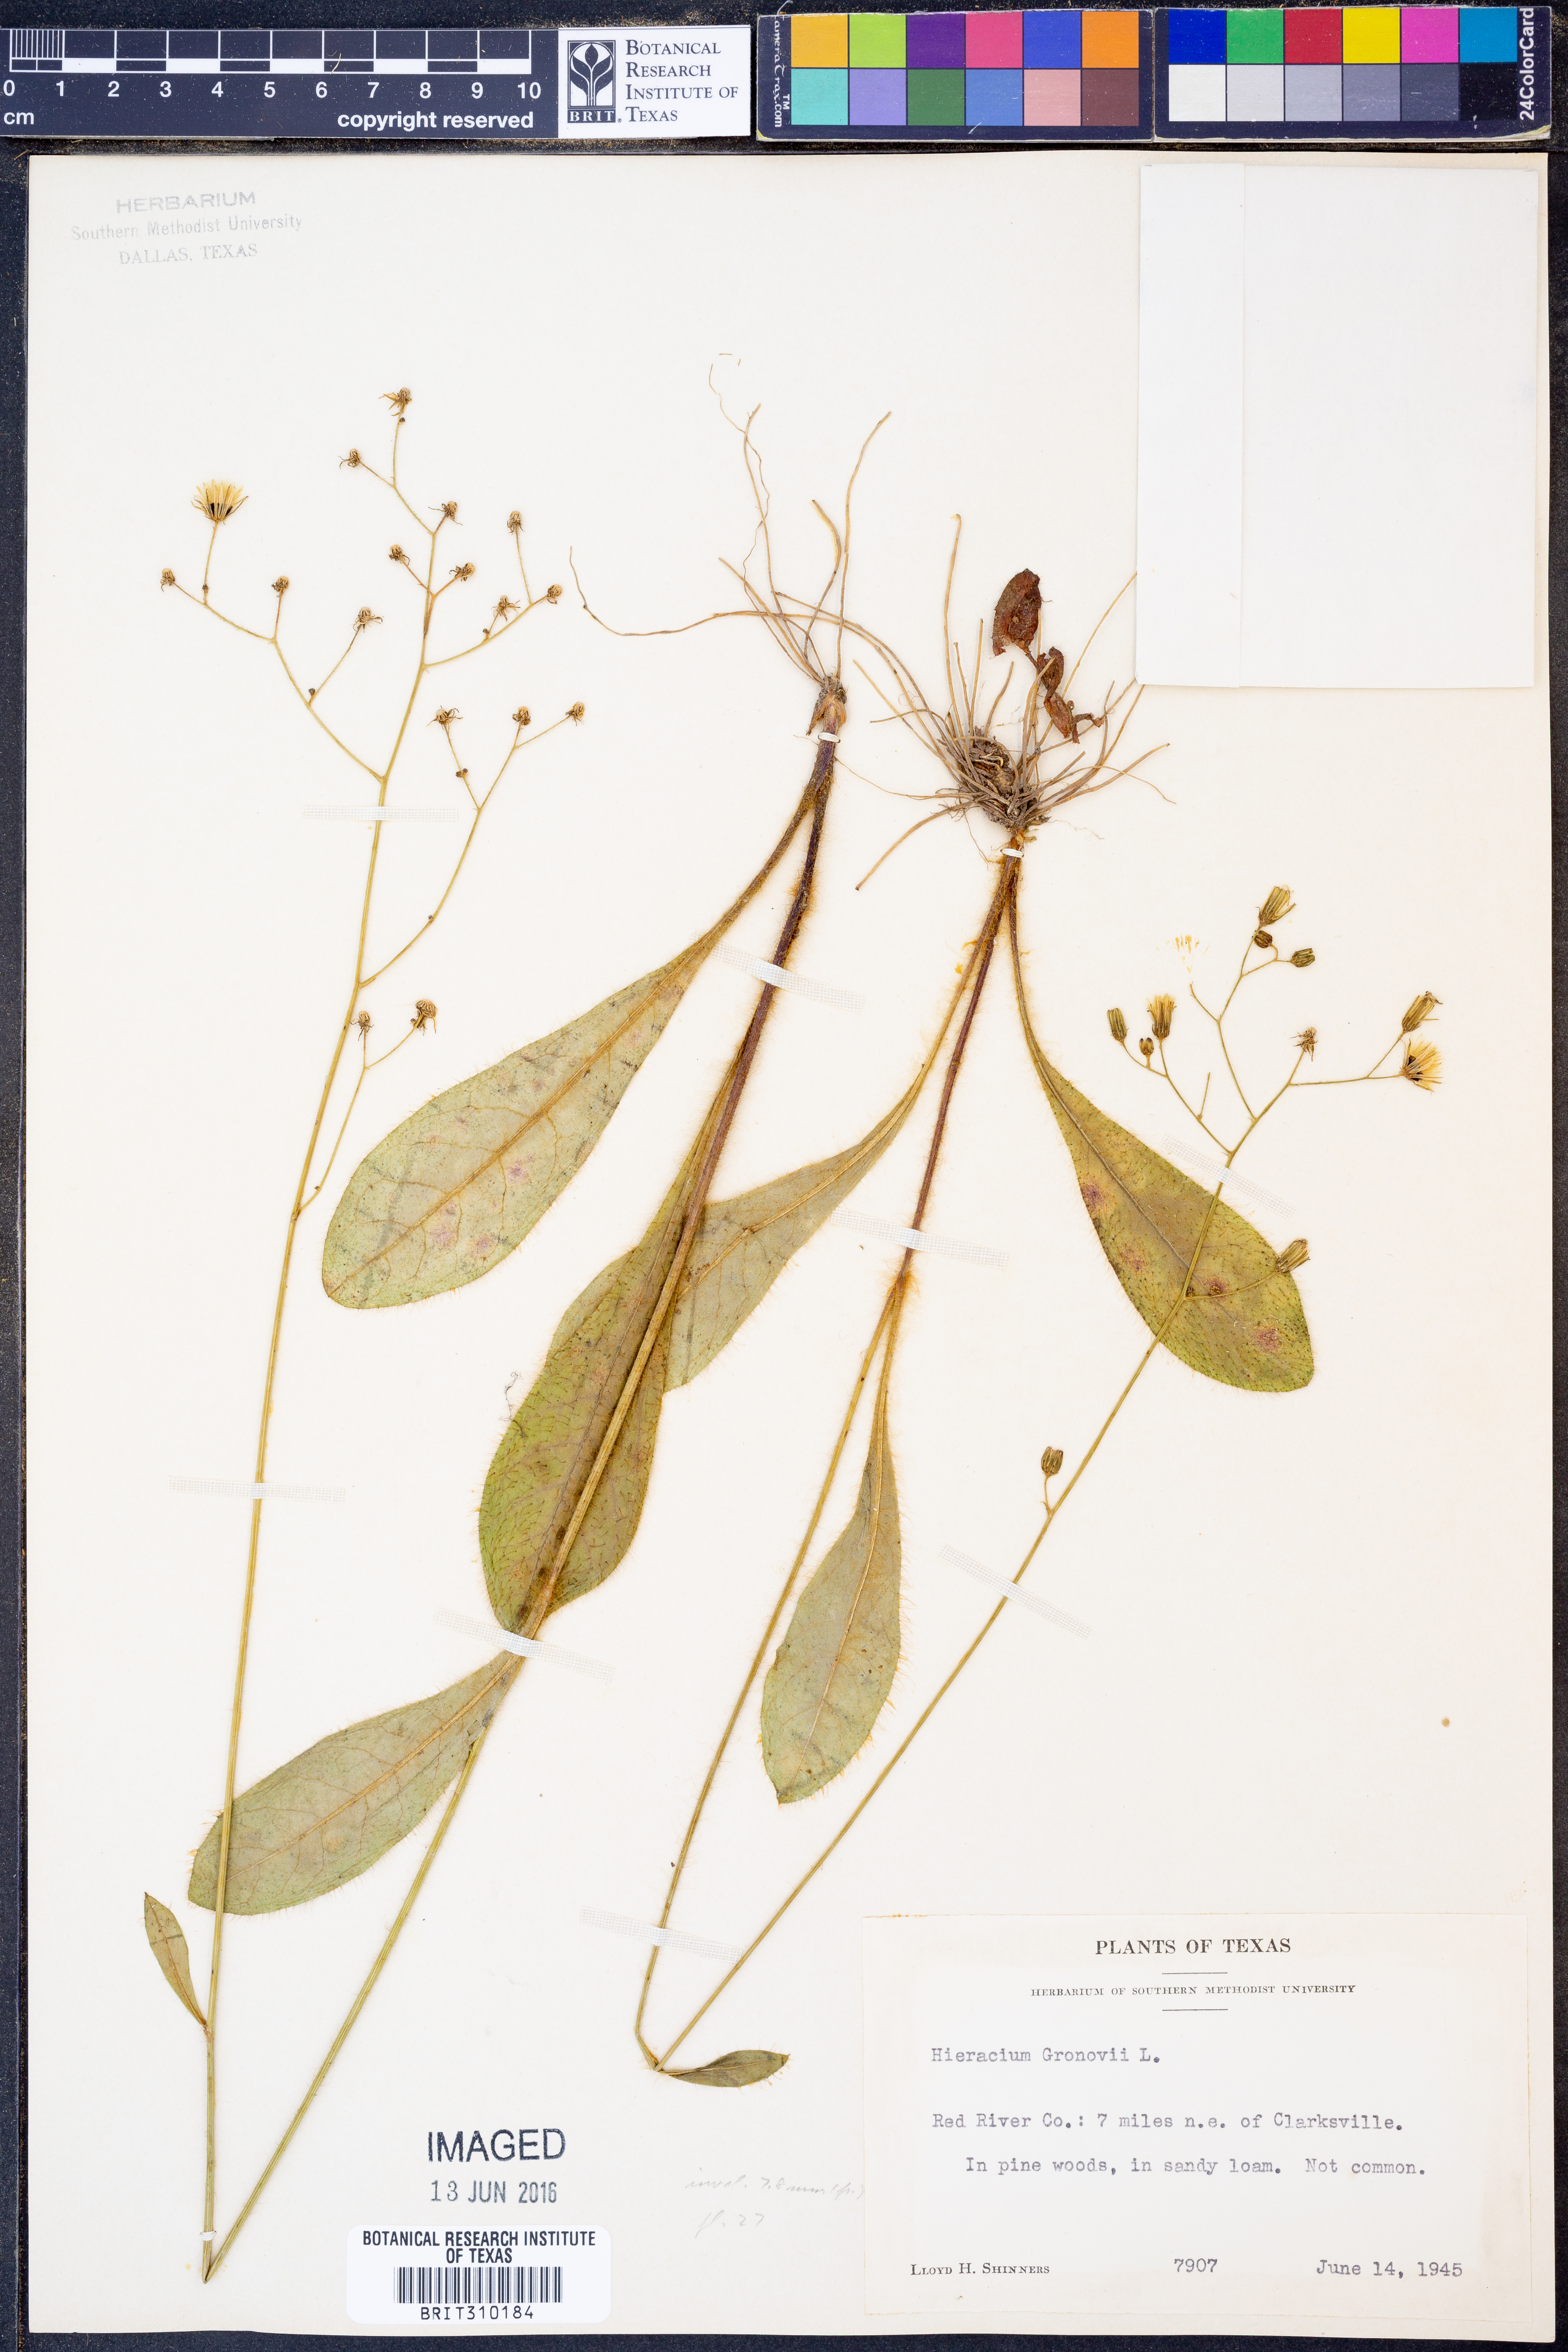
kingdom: Plantae
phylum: Tracheophyta
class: Magnoliopsida
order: Asterales
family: Asteraceae
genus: Hieracium
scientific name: Hieracium gronovii
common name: Beaked hawkweed
